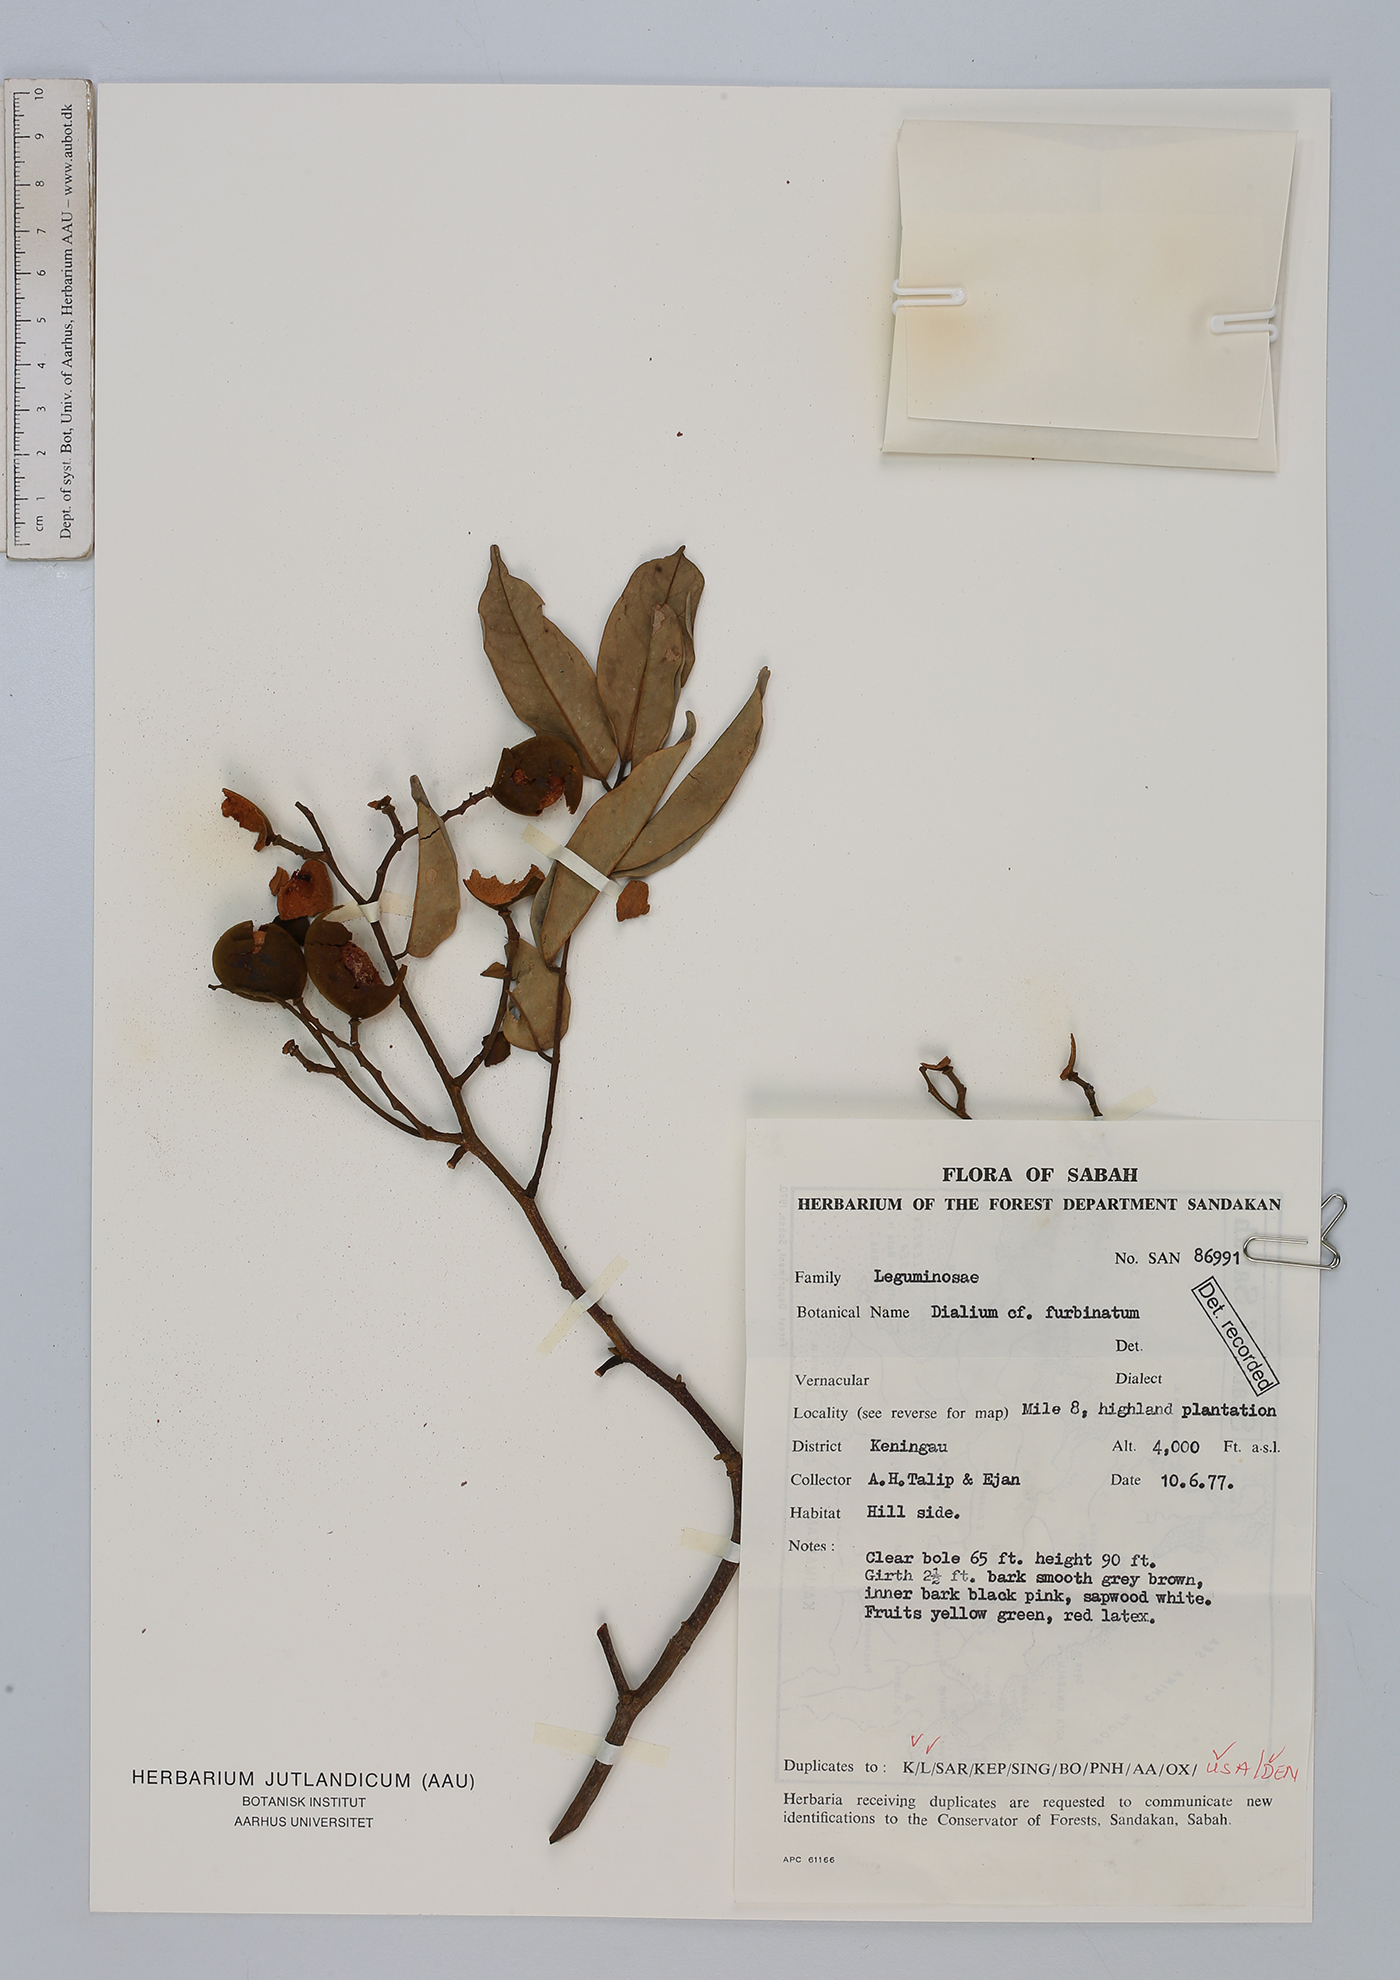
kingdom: Plantae
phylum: Tracheophyta
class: Magnoliopsida
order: Fabales
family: Fabaceae
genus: Dialium
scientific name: Dialium indum
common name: Tamarind-plum
